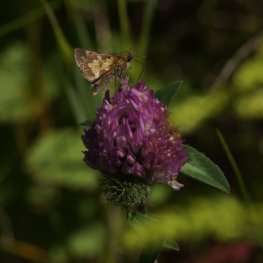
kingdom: Animalia
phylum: Arthropoda
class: Insecta
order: Lepidoptera
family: Hesperiidae
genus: Polites
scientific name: Polites coras
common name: Peck's Skipper
